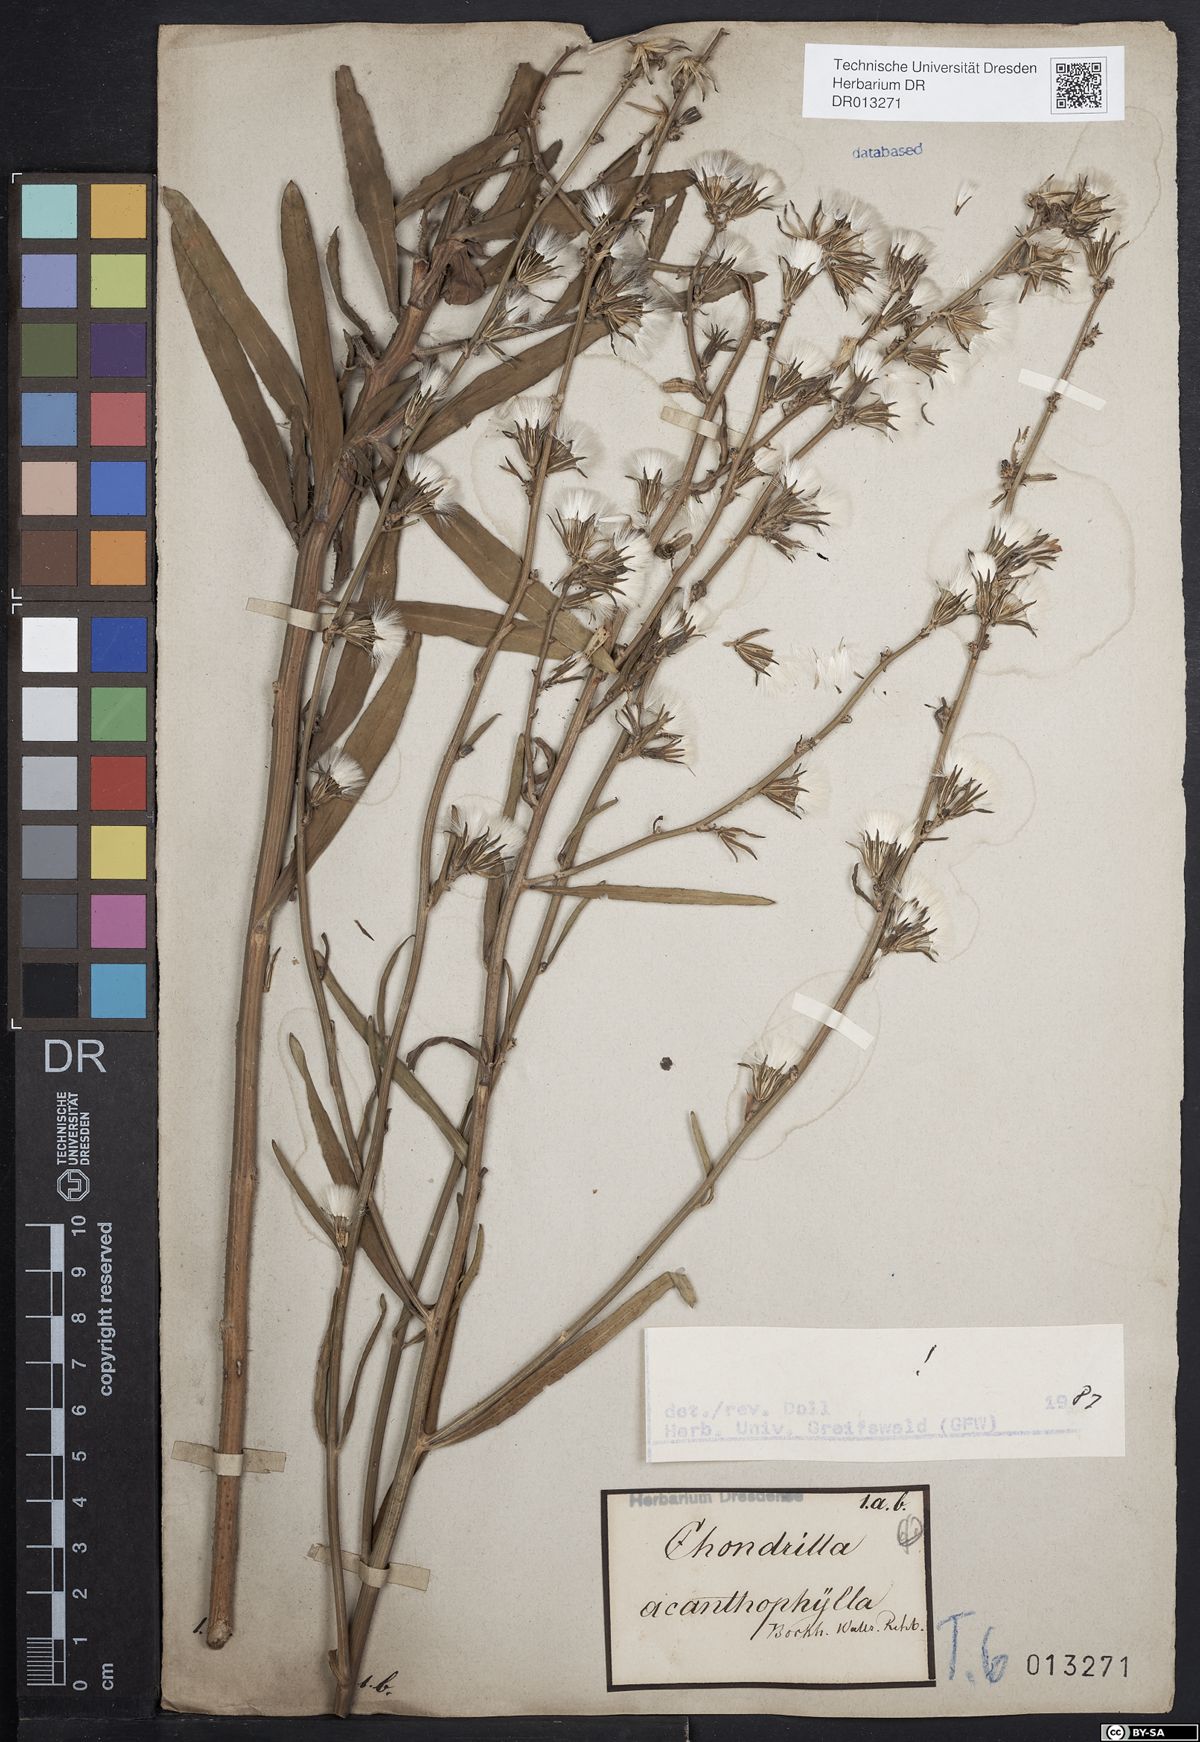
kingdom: Plantae
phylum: Tracheophyta
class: Magnoliopsida
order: Asterales
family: Asteraceae
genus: Chondrilla
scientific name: Chondrilla juncea
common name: Skeleton weed
